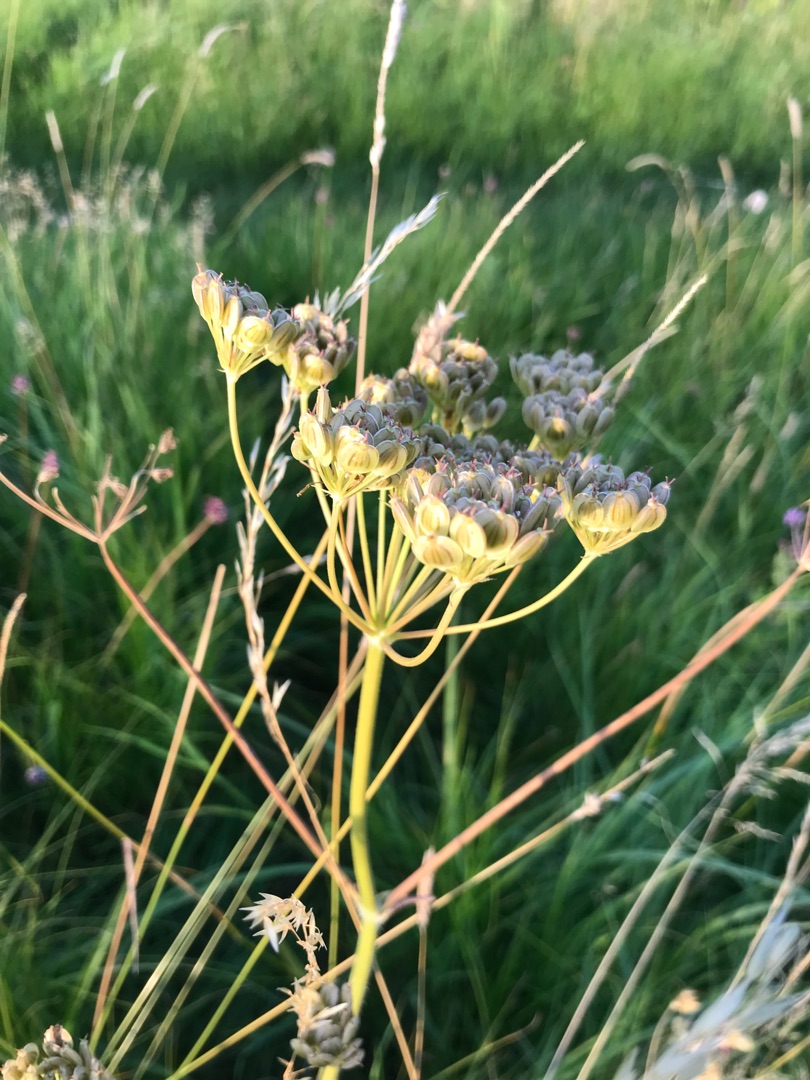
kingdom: Plantae
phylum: Tracheophyta
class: Magnoliopsida
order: Apiales
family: Apiaceae
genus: Heracleum
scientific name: Heracleum sphondylium
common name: Almindelig bjørneklo
